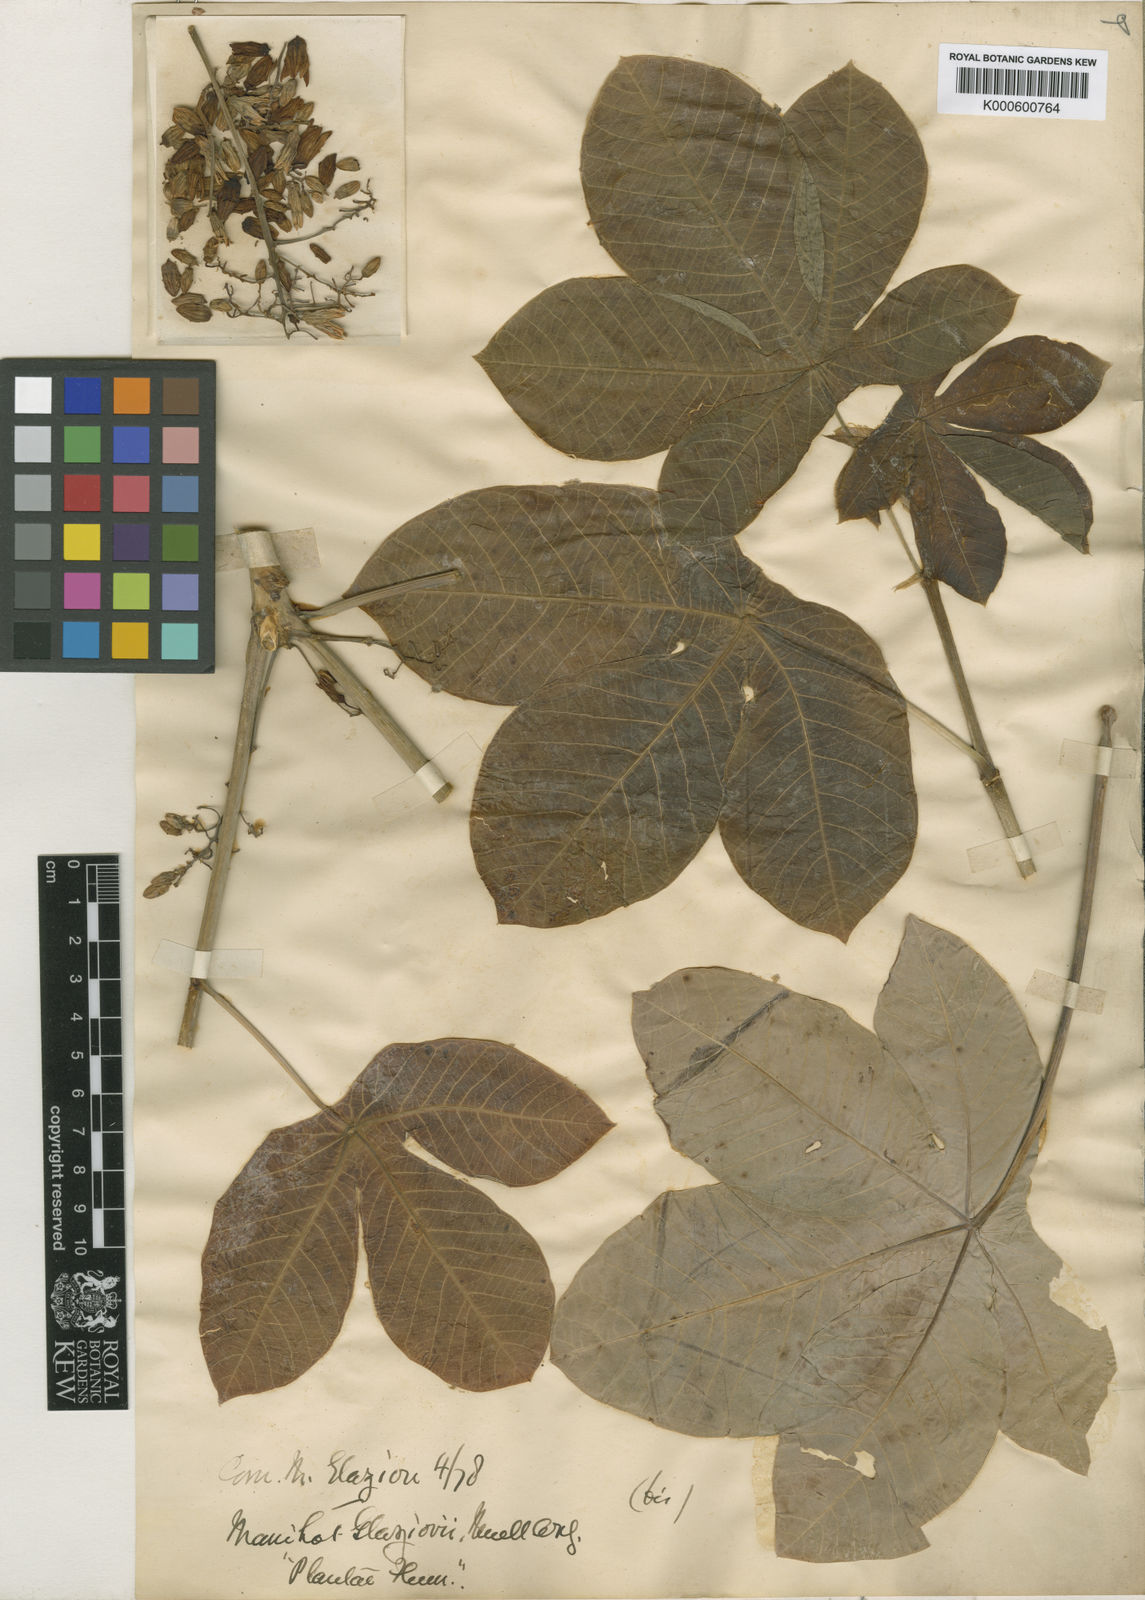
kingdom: Plantae
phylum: Tracheophyta
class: Magnoliopsida
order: Malpighiales
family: Euphorbiaceae
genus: Manihot
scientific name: Manihot
